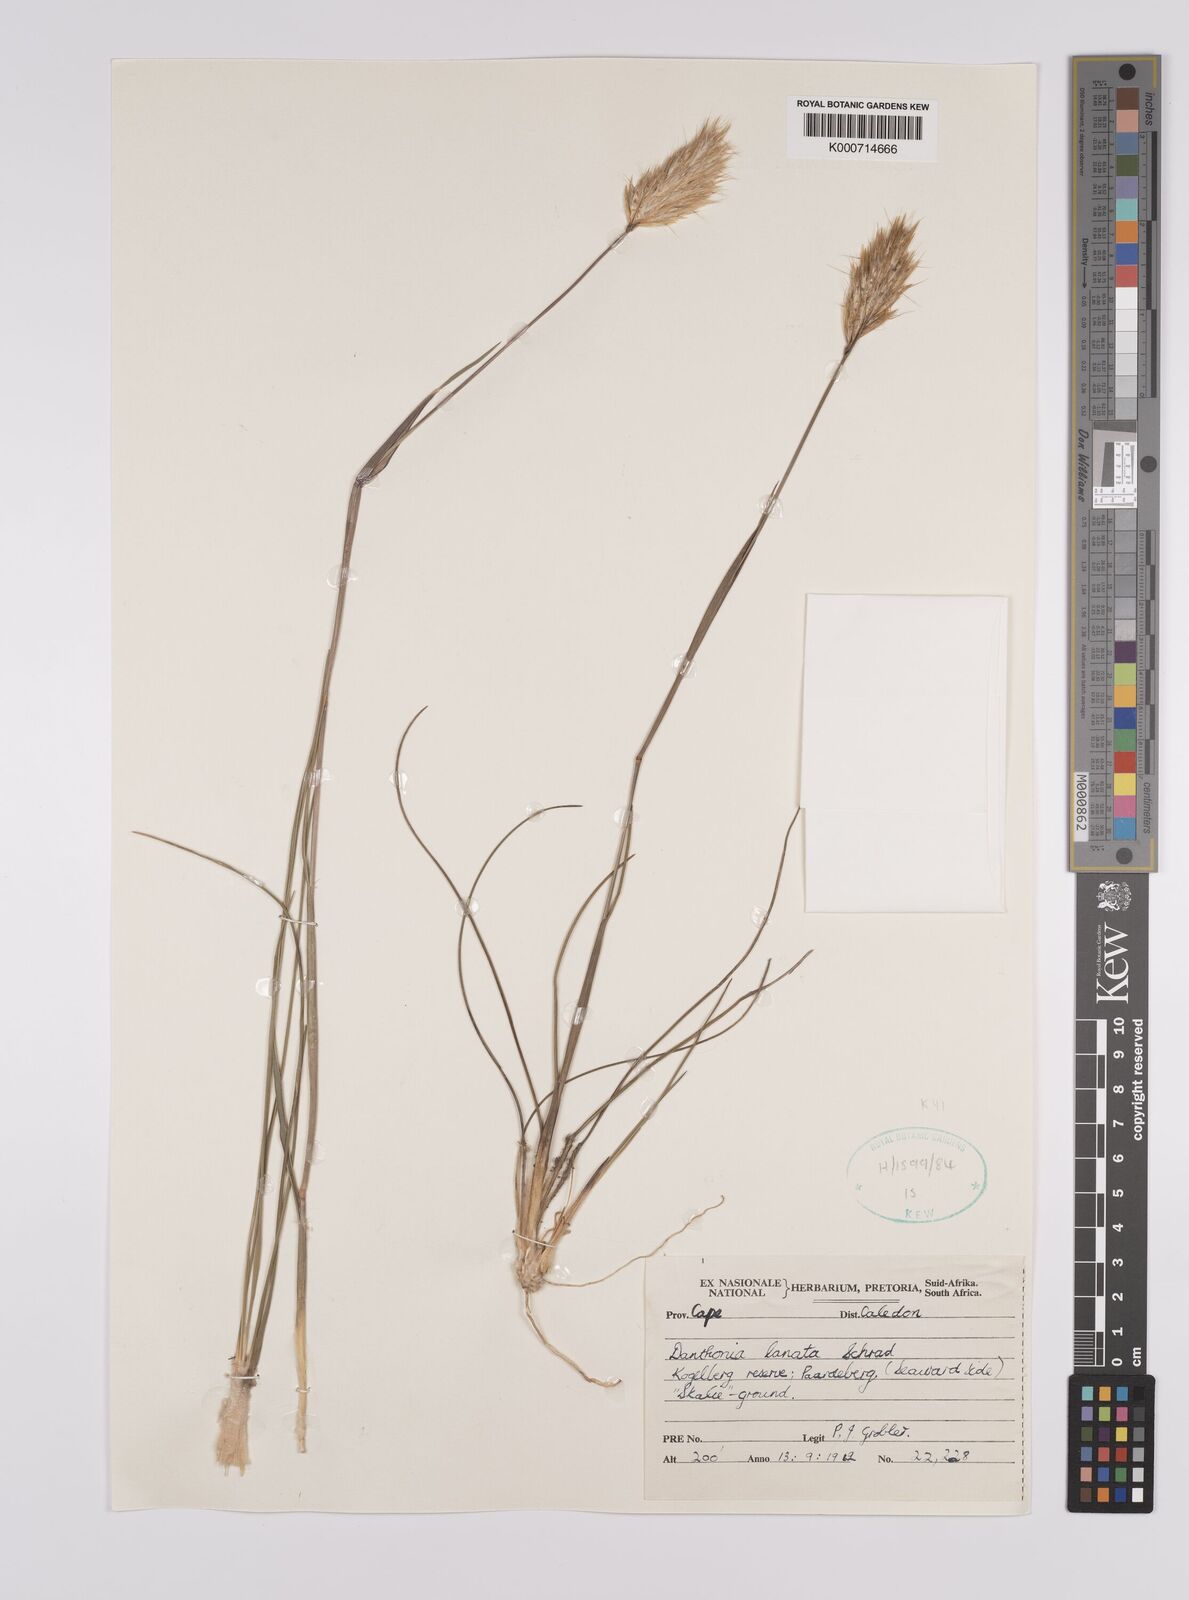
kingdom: Plantae
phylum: Tracheophyta
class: Liliopsida
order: Poales
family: Poaceae
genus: Rytidosperma
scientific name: Rytidosperma
